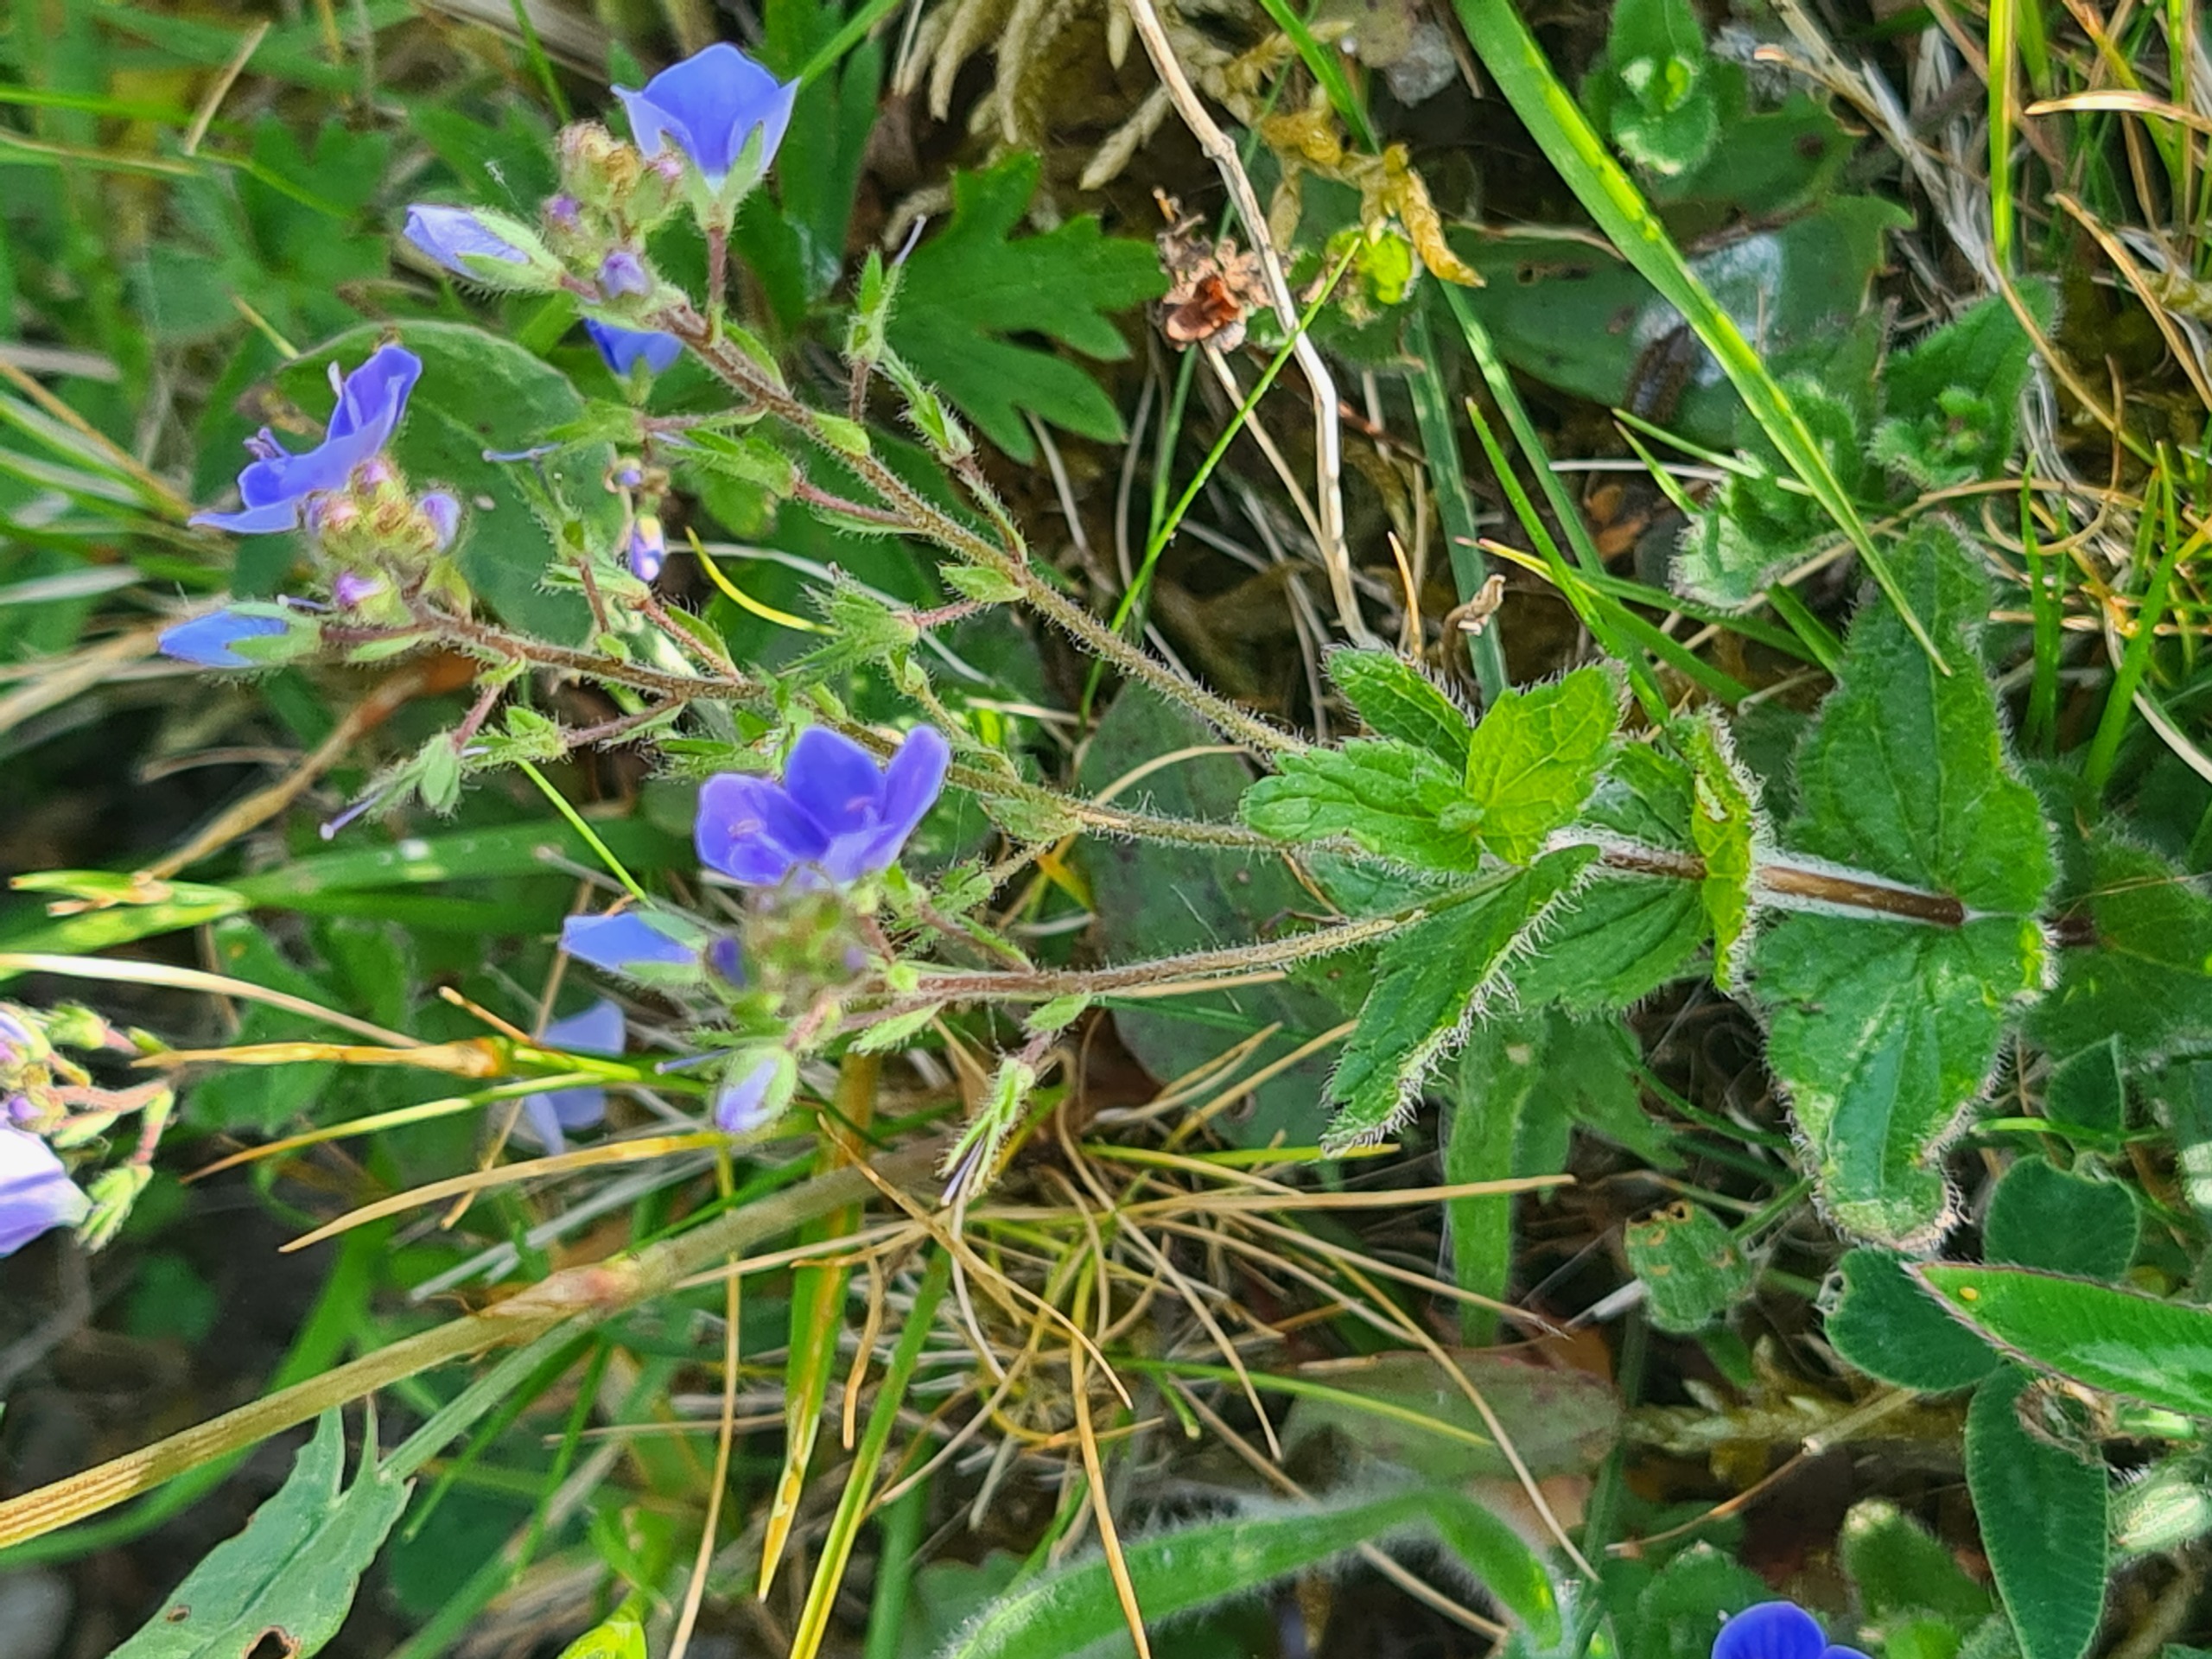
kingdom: Plantae
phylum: Tracheophyta
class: Magnoliopsida
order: Lamiales
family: Plantaginaceae
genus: Veronica
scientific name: Veronica chamaedrys
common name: Tveskægget ærenpris
